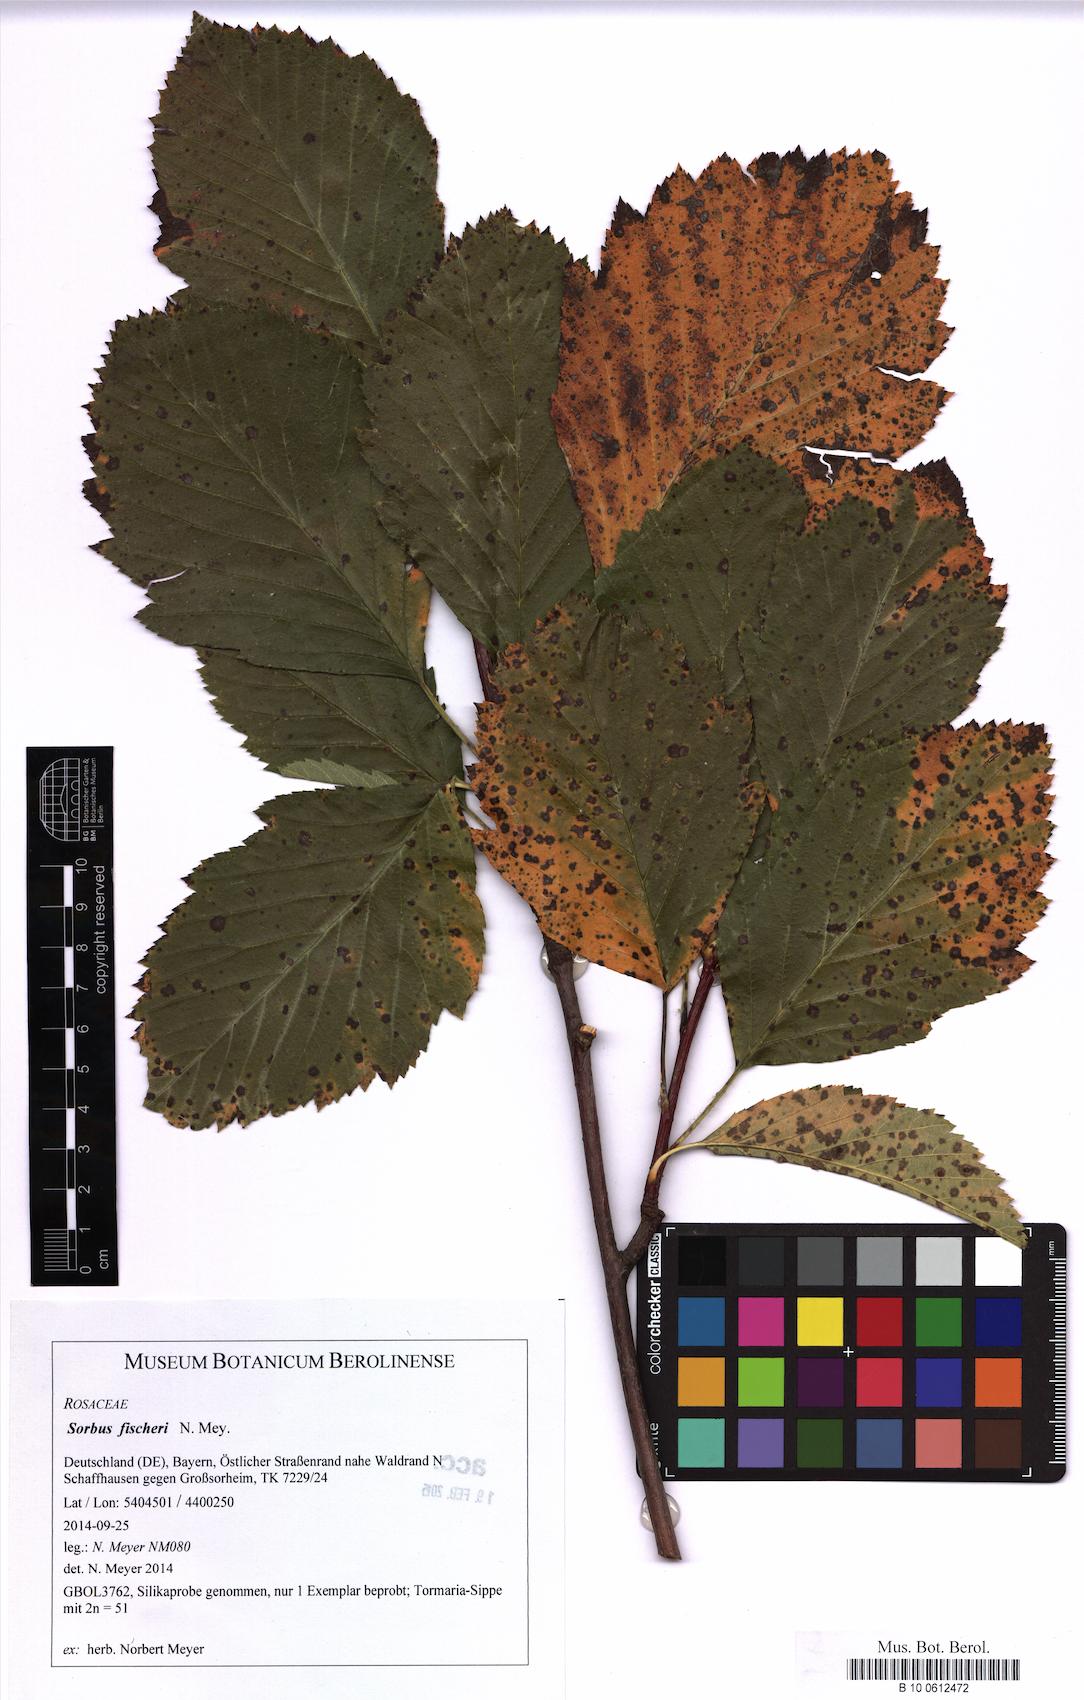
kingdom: Plantae
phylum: Tracheophyta
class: Magnoliopsida
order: Rosales
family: Rosaceae
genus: Karpatiosorbus
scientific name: Karpatiosorbus fischeri
